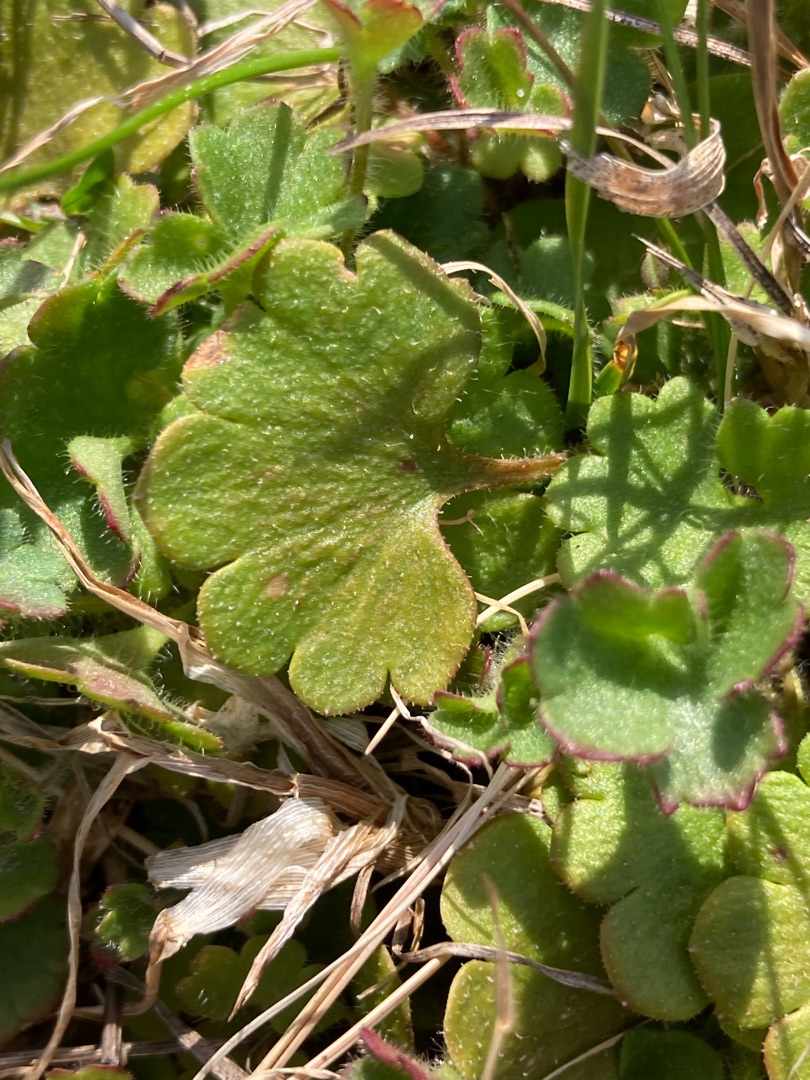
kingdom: Plantae
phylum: Tracheophyta
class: Magnoliopsida
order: Saxifragales
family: Saxifragaceae
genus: Saxifraga
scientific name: Saxifraga granulata
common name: Kornet stenbræk
